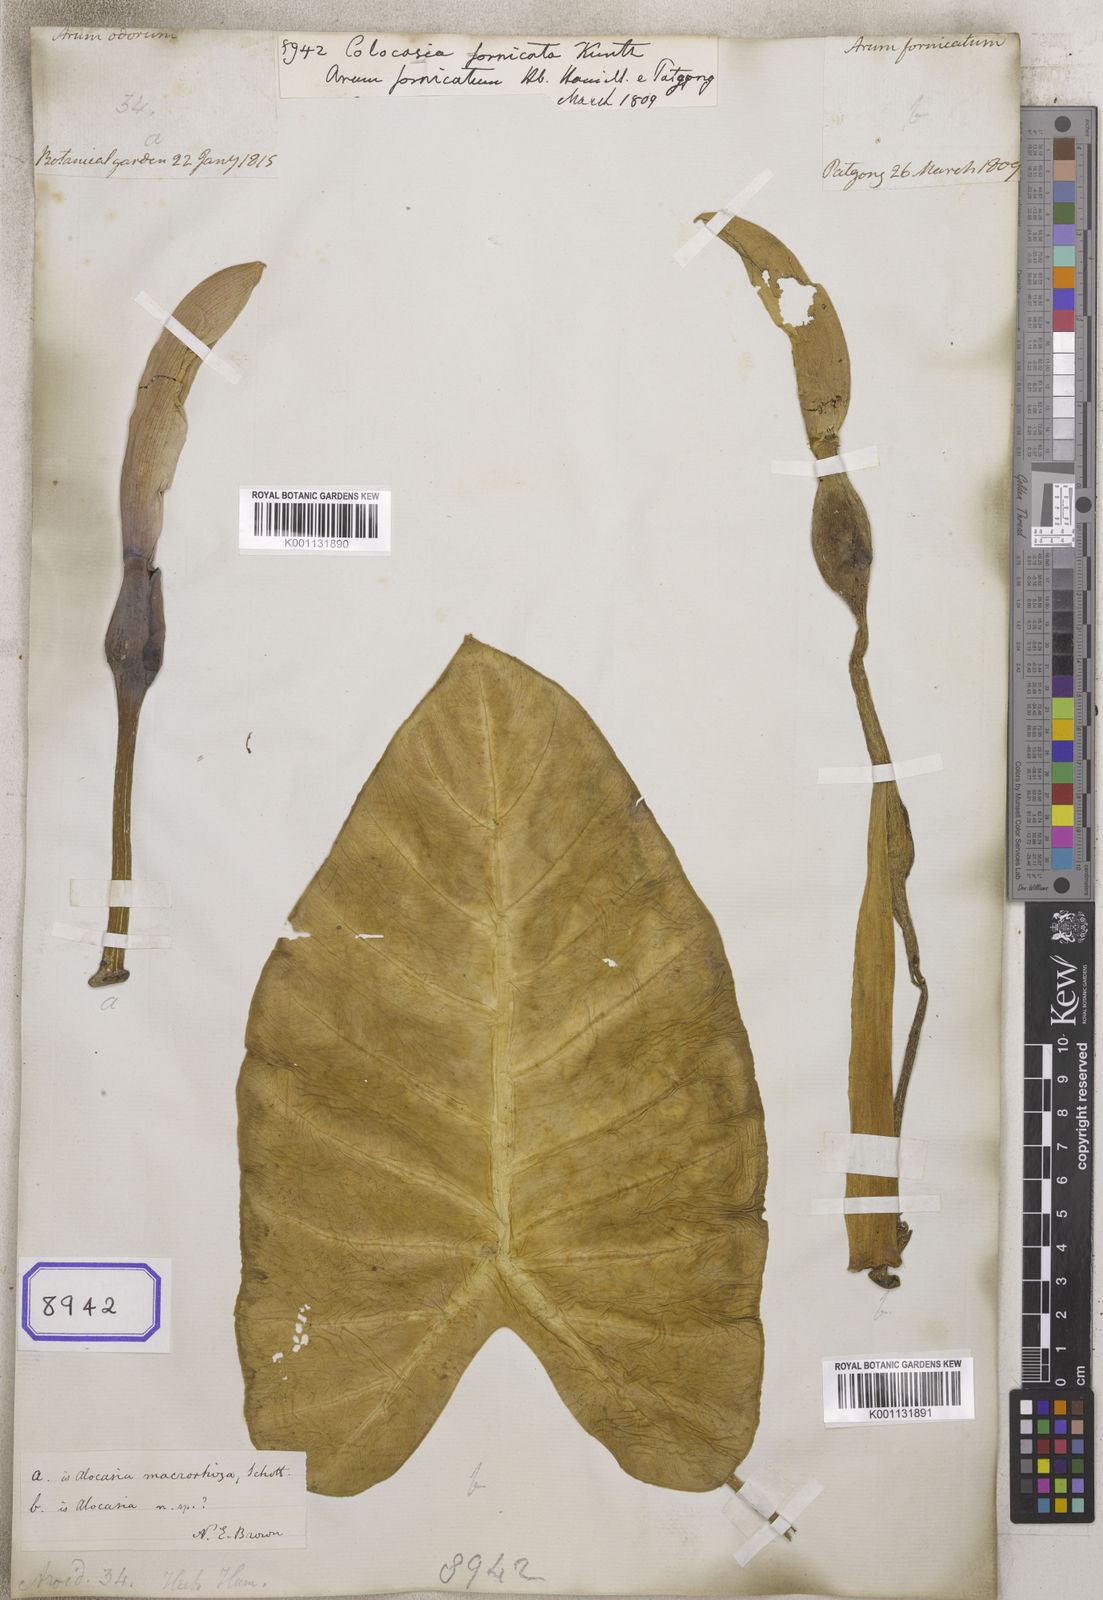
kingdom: Plantae
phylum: Tracheophyta
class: Liliopsida
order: Alismatales
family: Araceae
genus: Alocasia
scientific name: Alocasia fornicata
